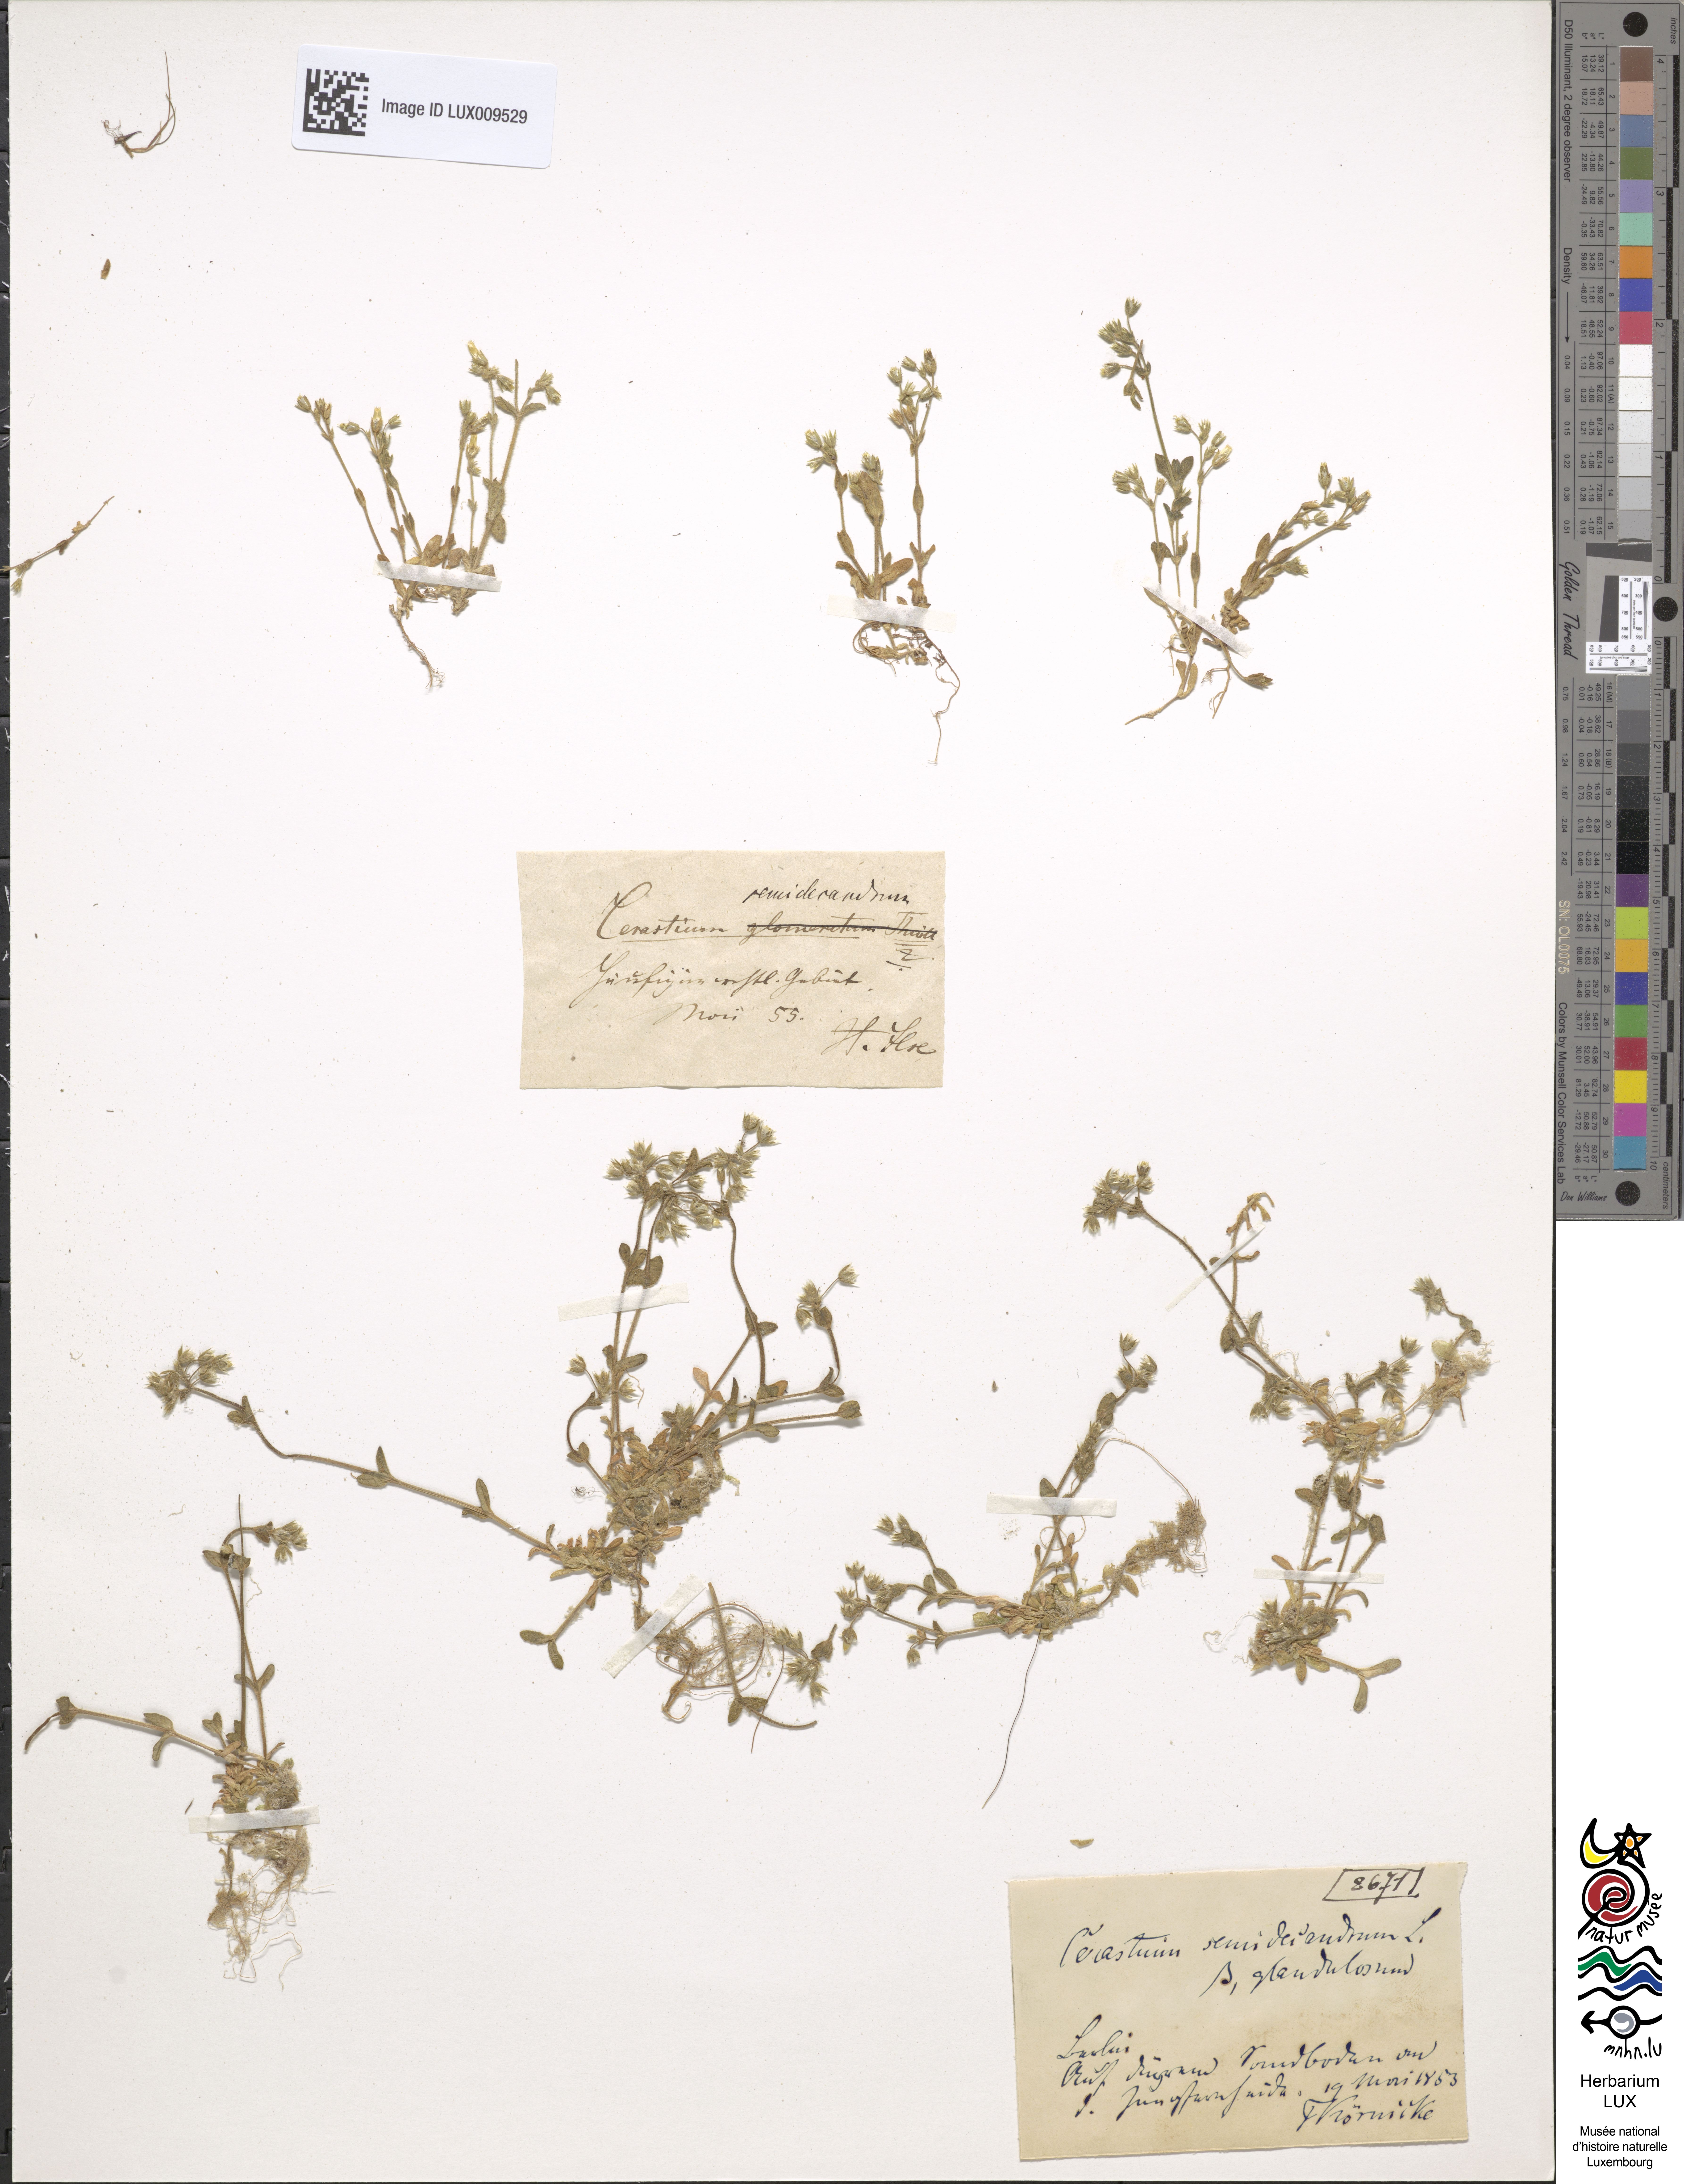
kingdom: Plantae
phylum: Tracheophyta
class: Magnoliopsida
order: Caryophyllales
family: Caryophyllaceae
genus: Cerastium
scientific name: Cerastium semidecandrum
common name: Little mouse-ear
